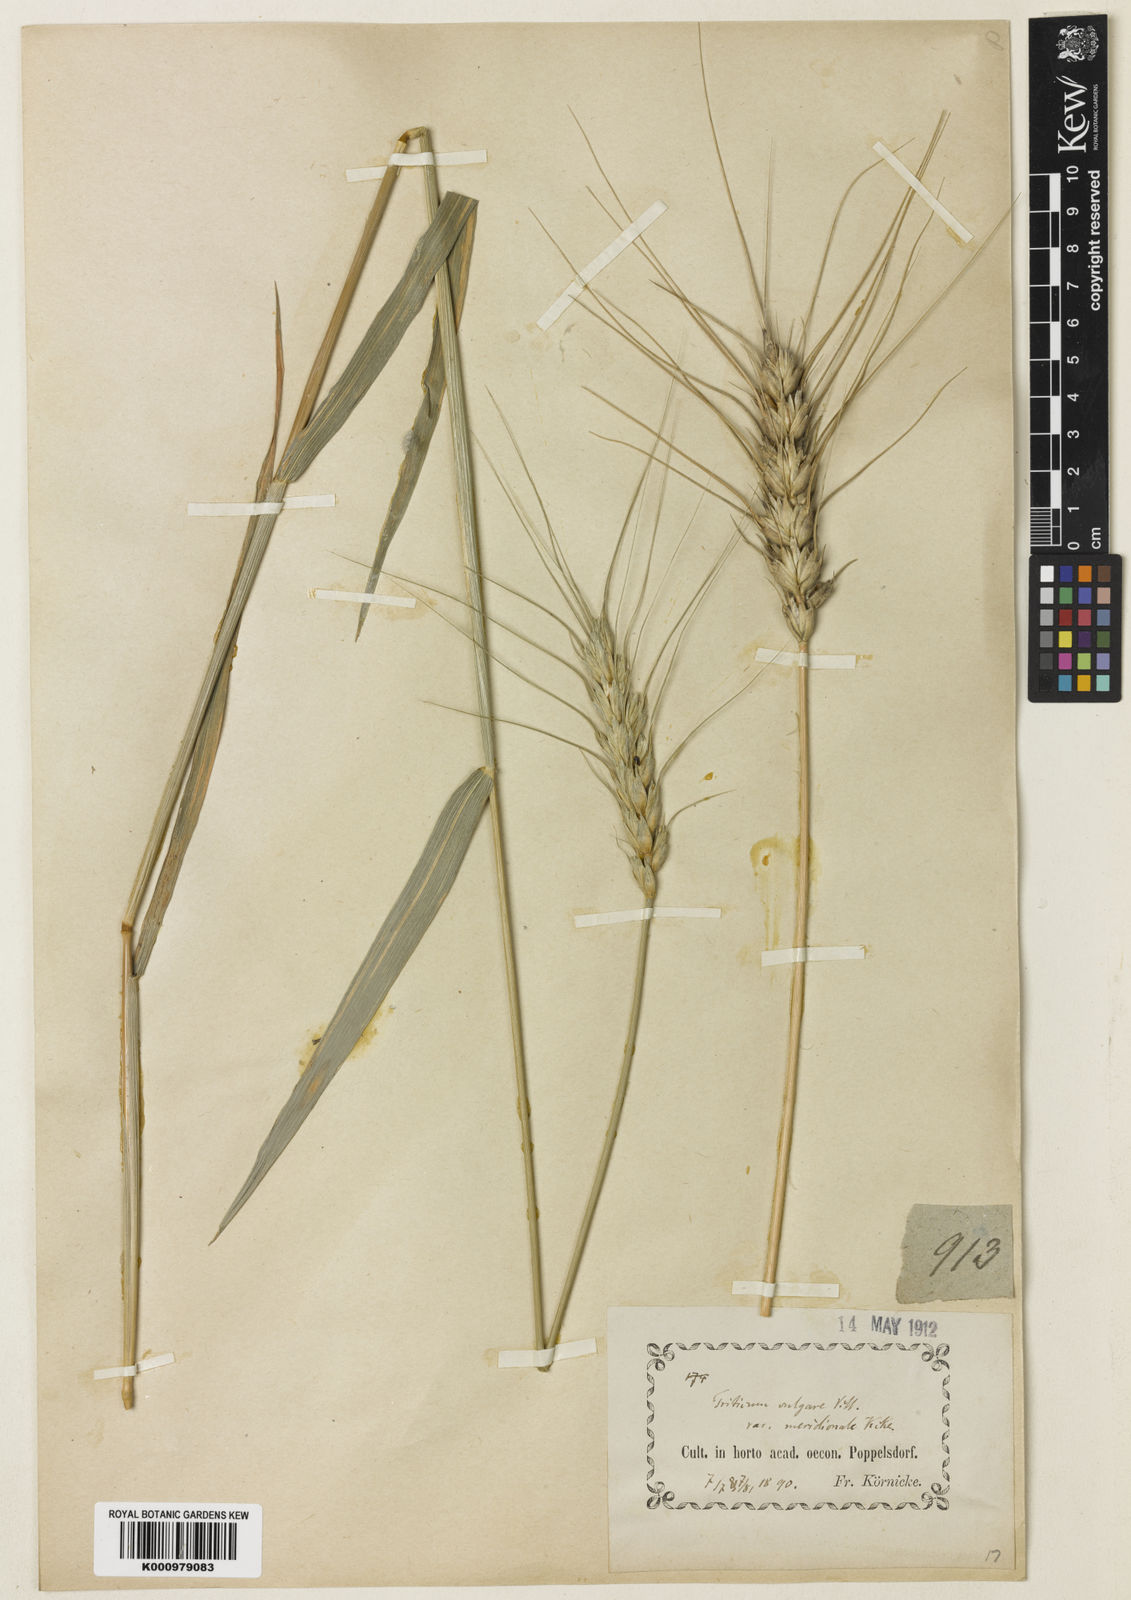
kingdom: Plantae
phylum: Tracheophyta
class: Liliopsida
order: Poales
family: Poaceae
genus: Triticum
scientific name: Triticum aestivum
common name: Common wheat
